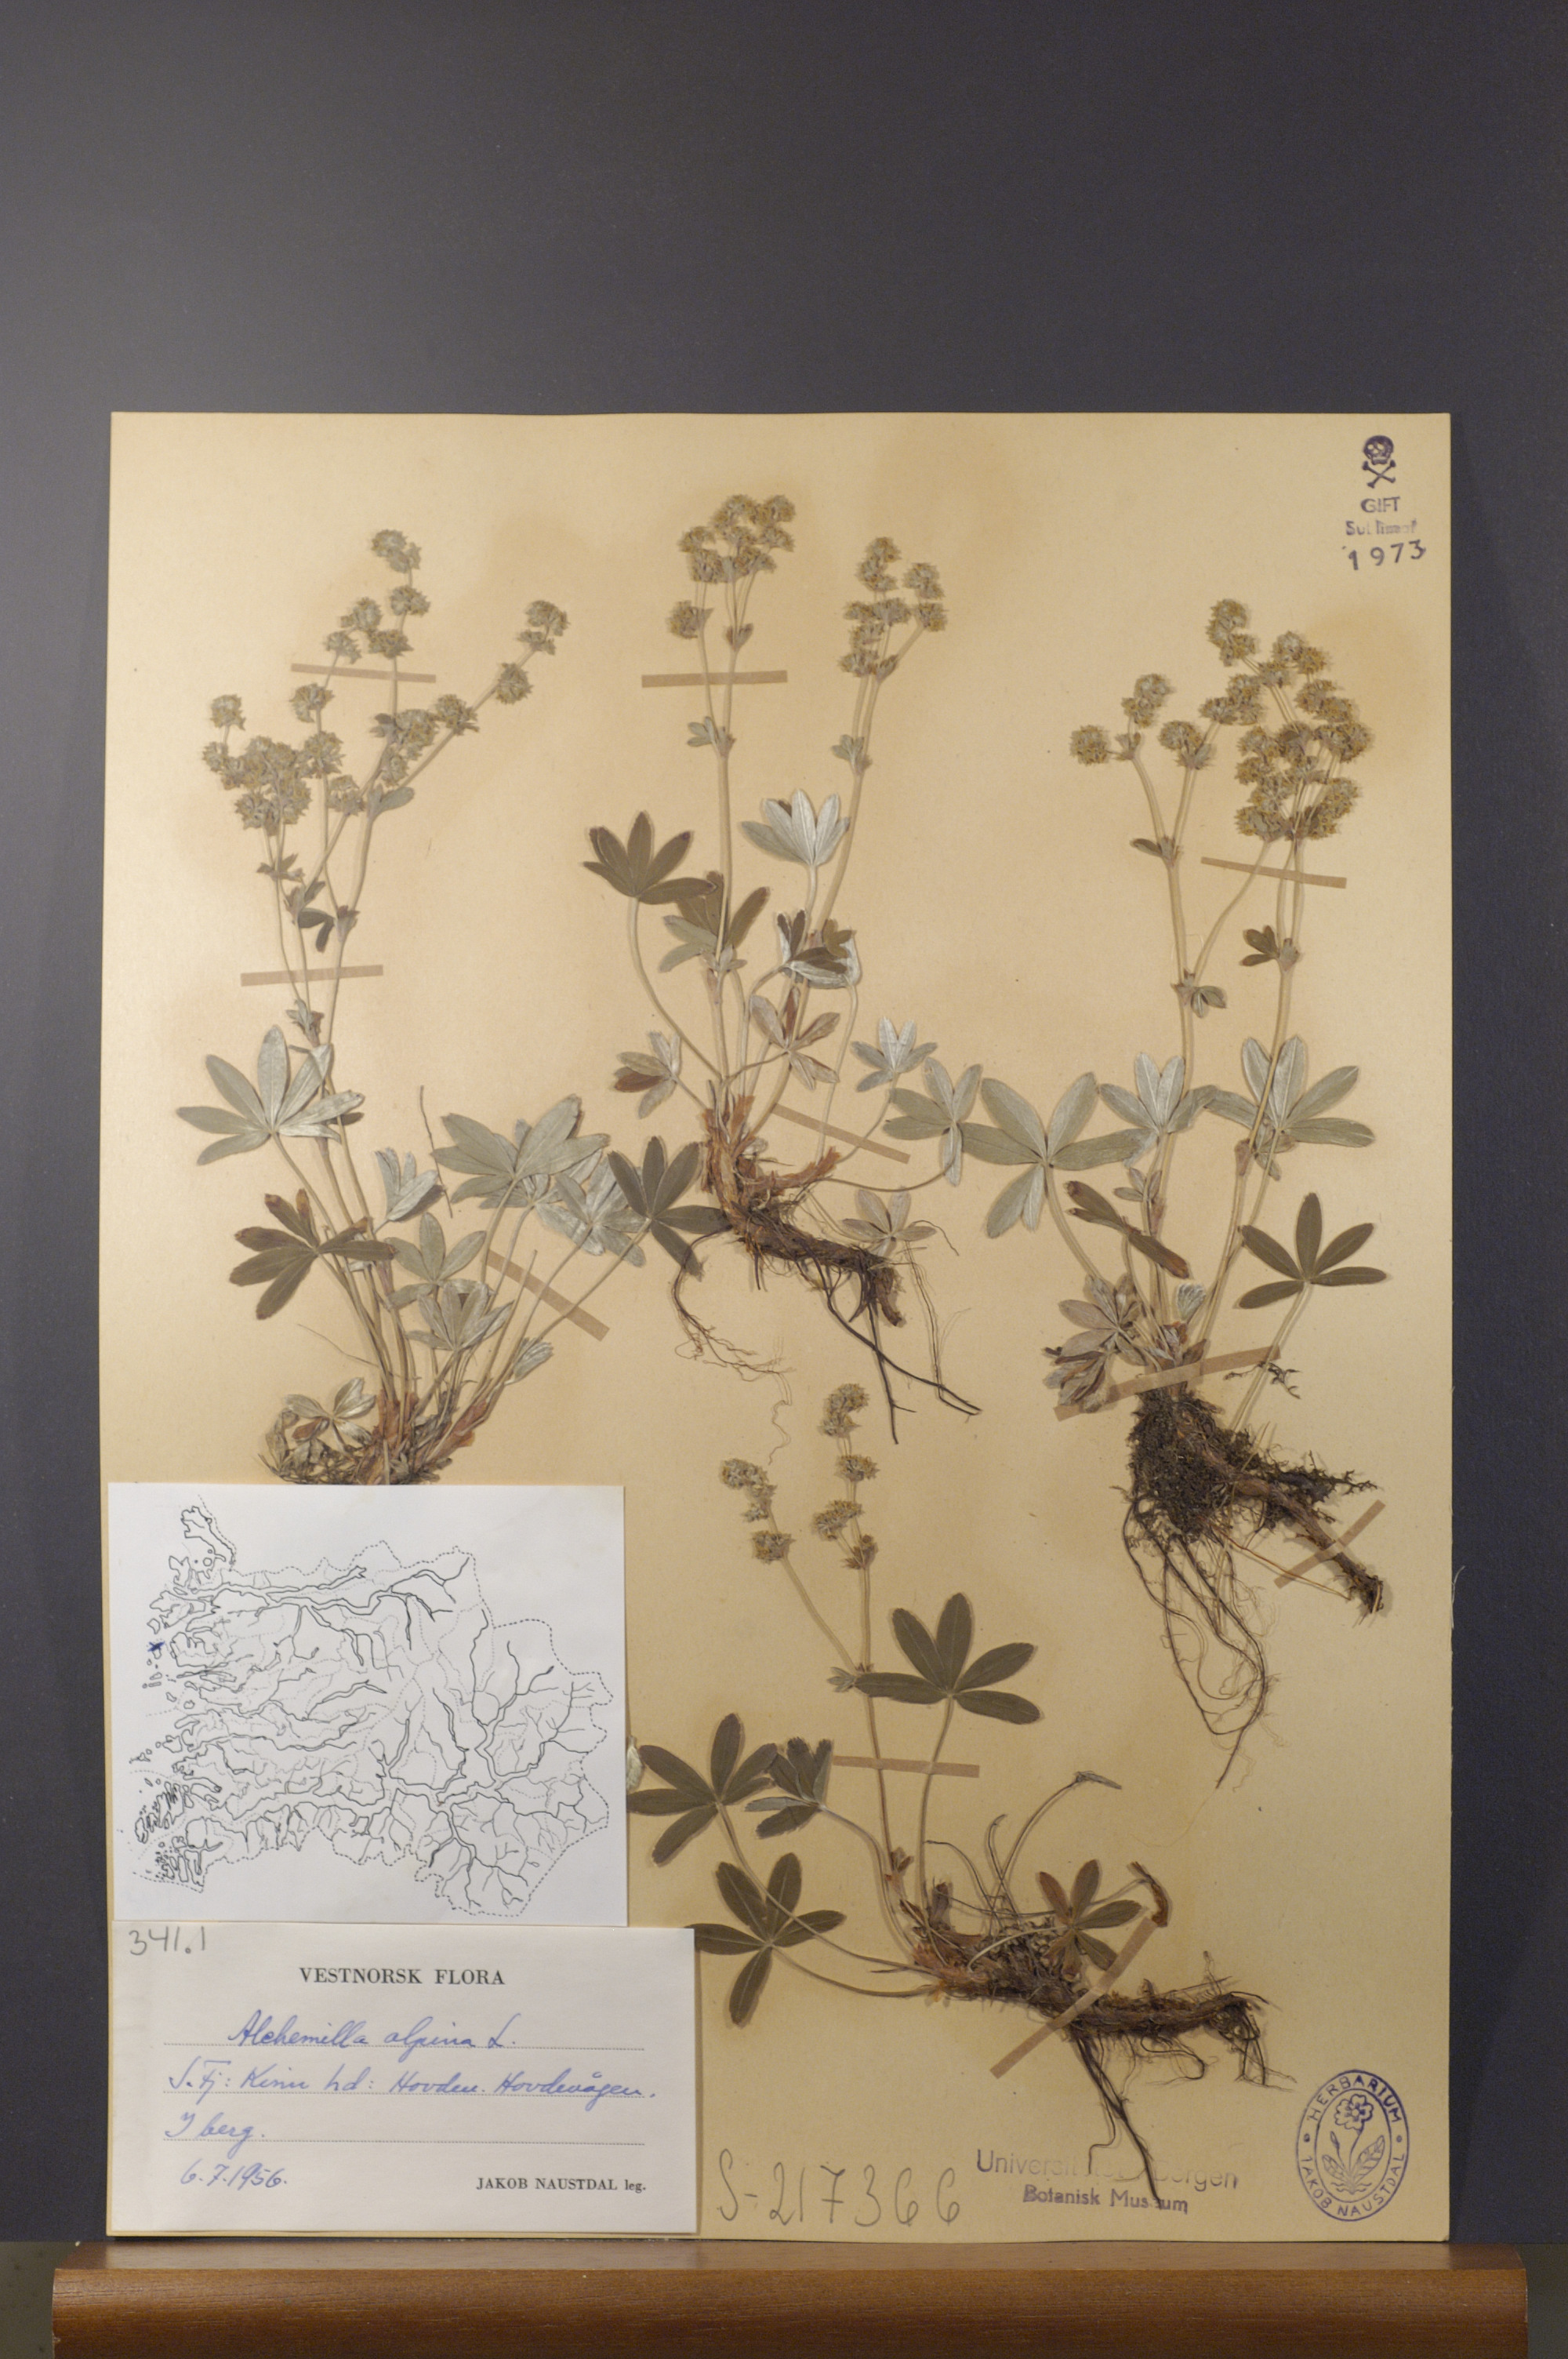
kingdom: Plantae
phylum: Tracheophyta
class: Magnoliopsida
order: Rosales
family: Rosaceae
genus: Alchemilla
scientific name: Alchemilla alpina
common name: Alpine lady's-mantle
